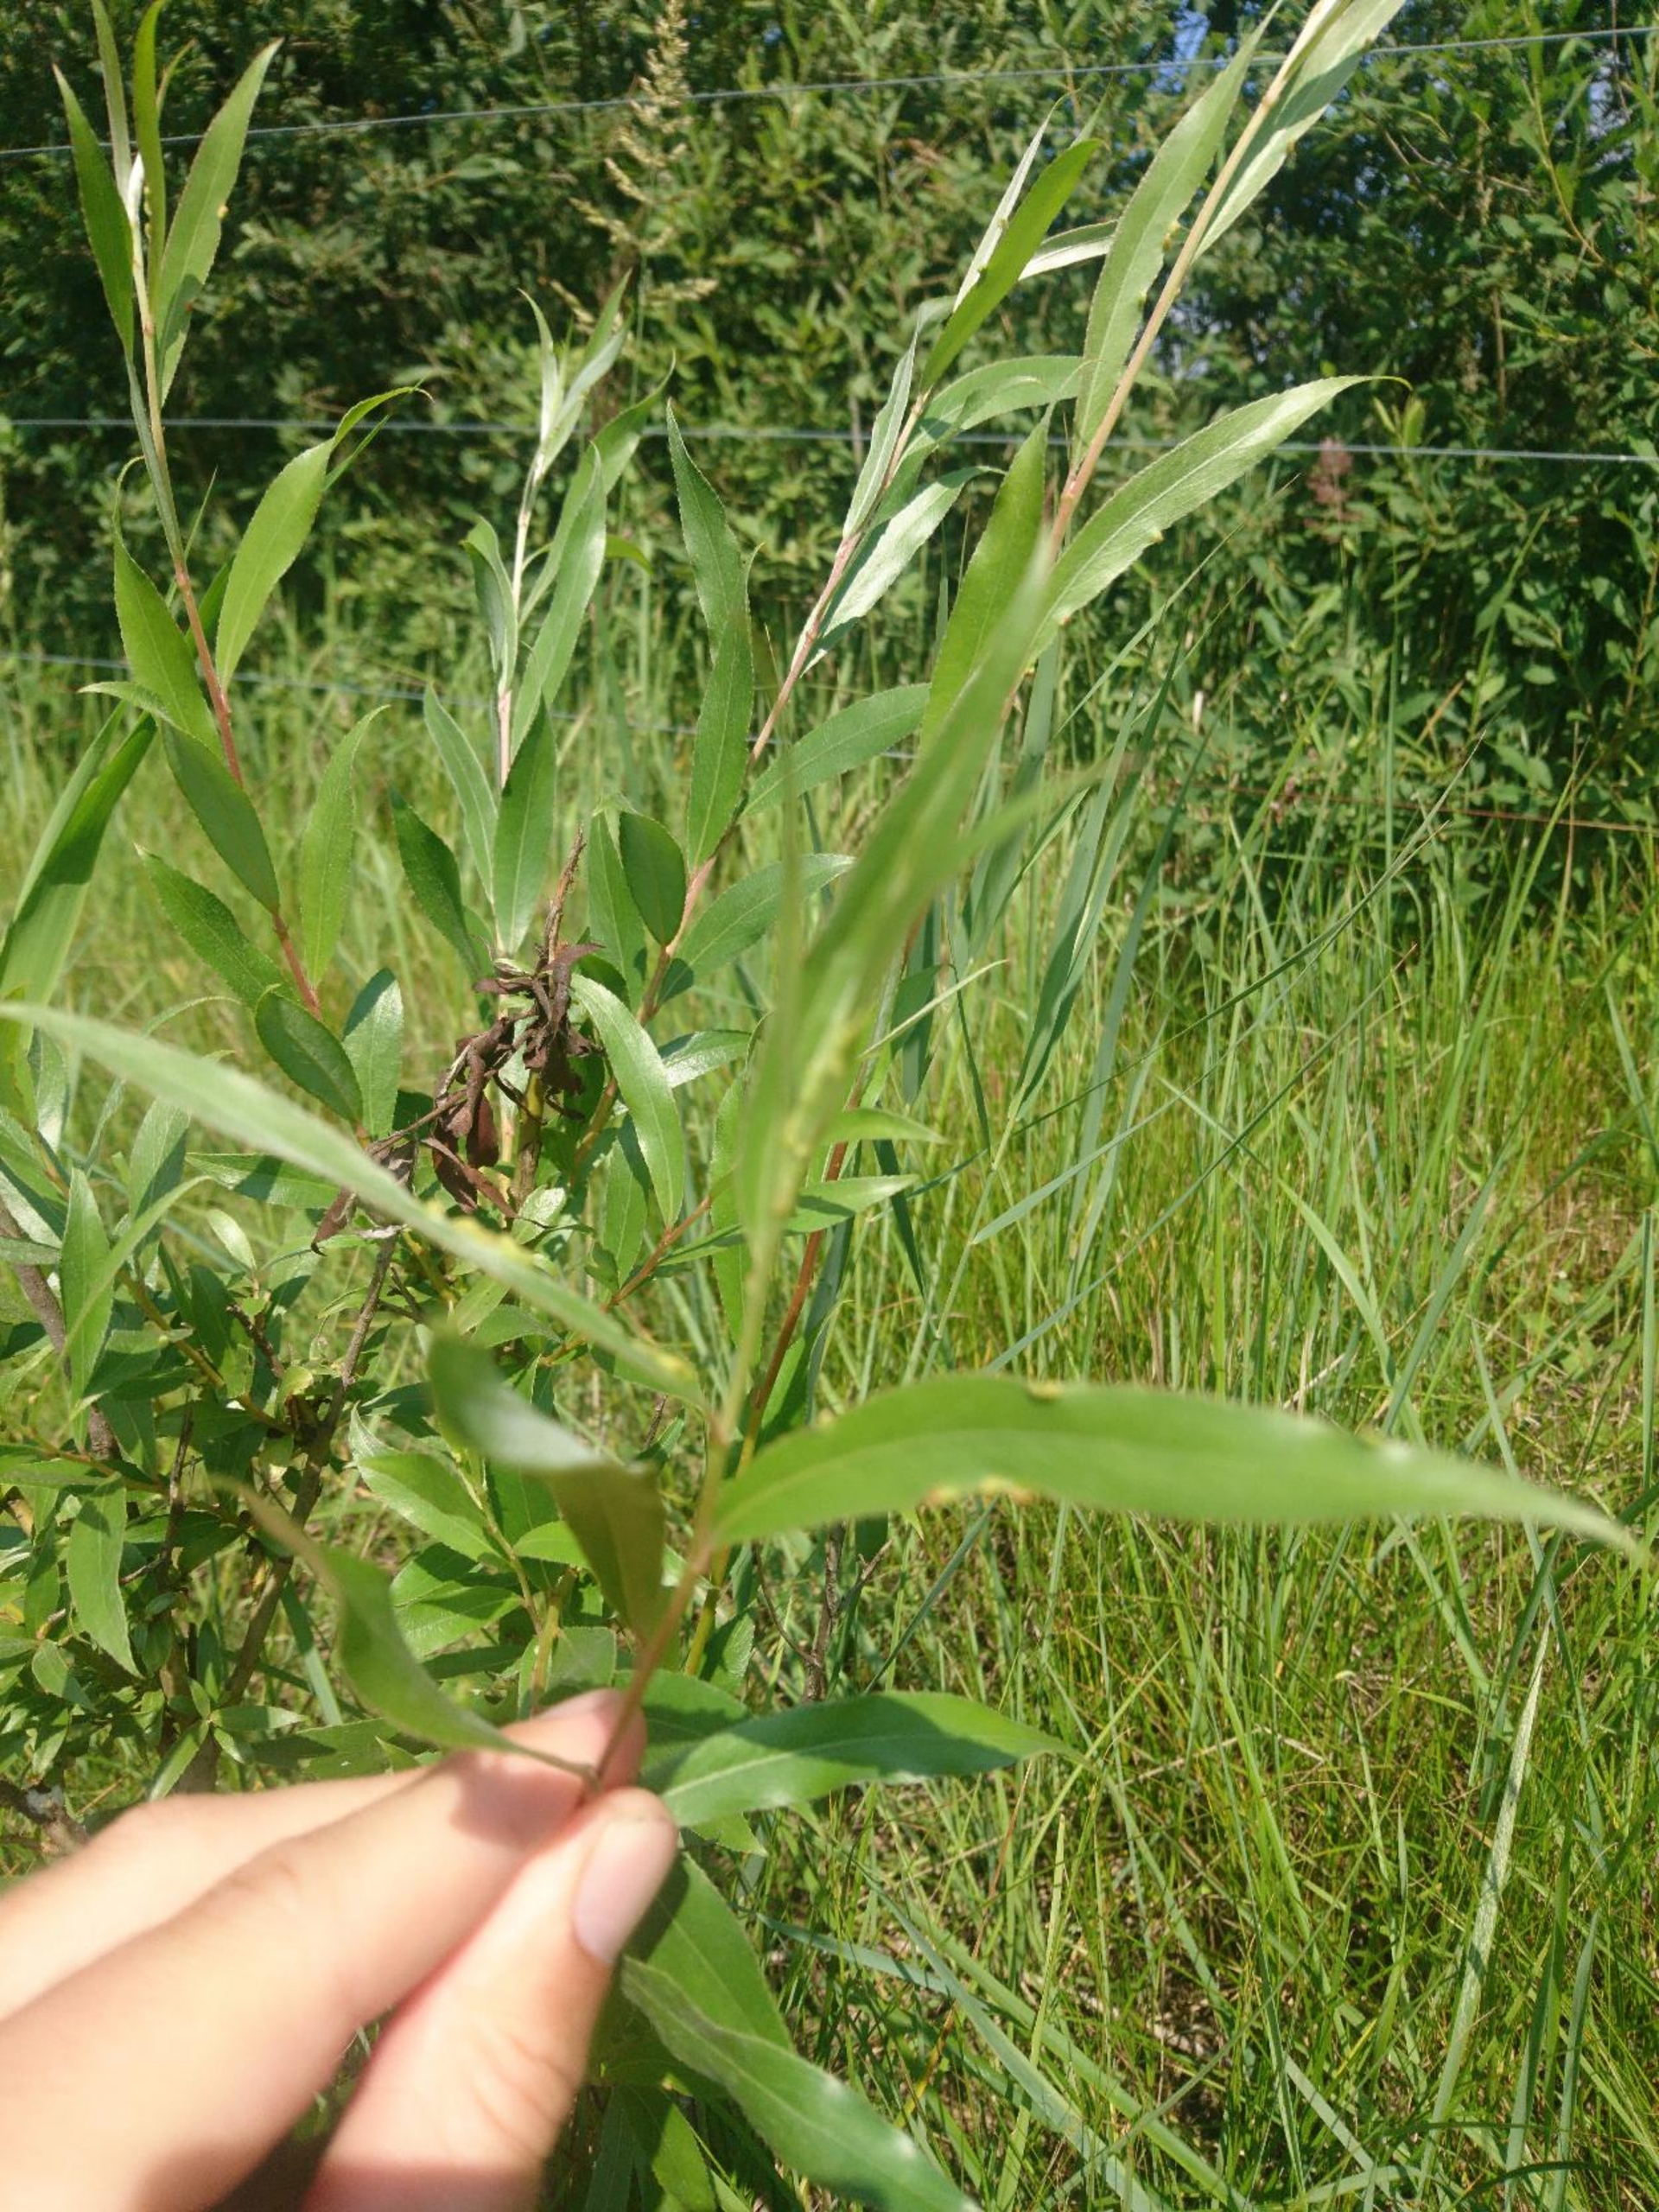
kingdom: Plantae
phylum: Tracheophyta
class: Magnoliopsida
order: Malpighiales
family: Salicaceae
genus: Salix
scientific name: Salix alba
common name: Hvid-pil
